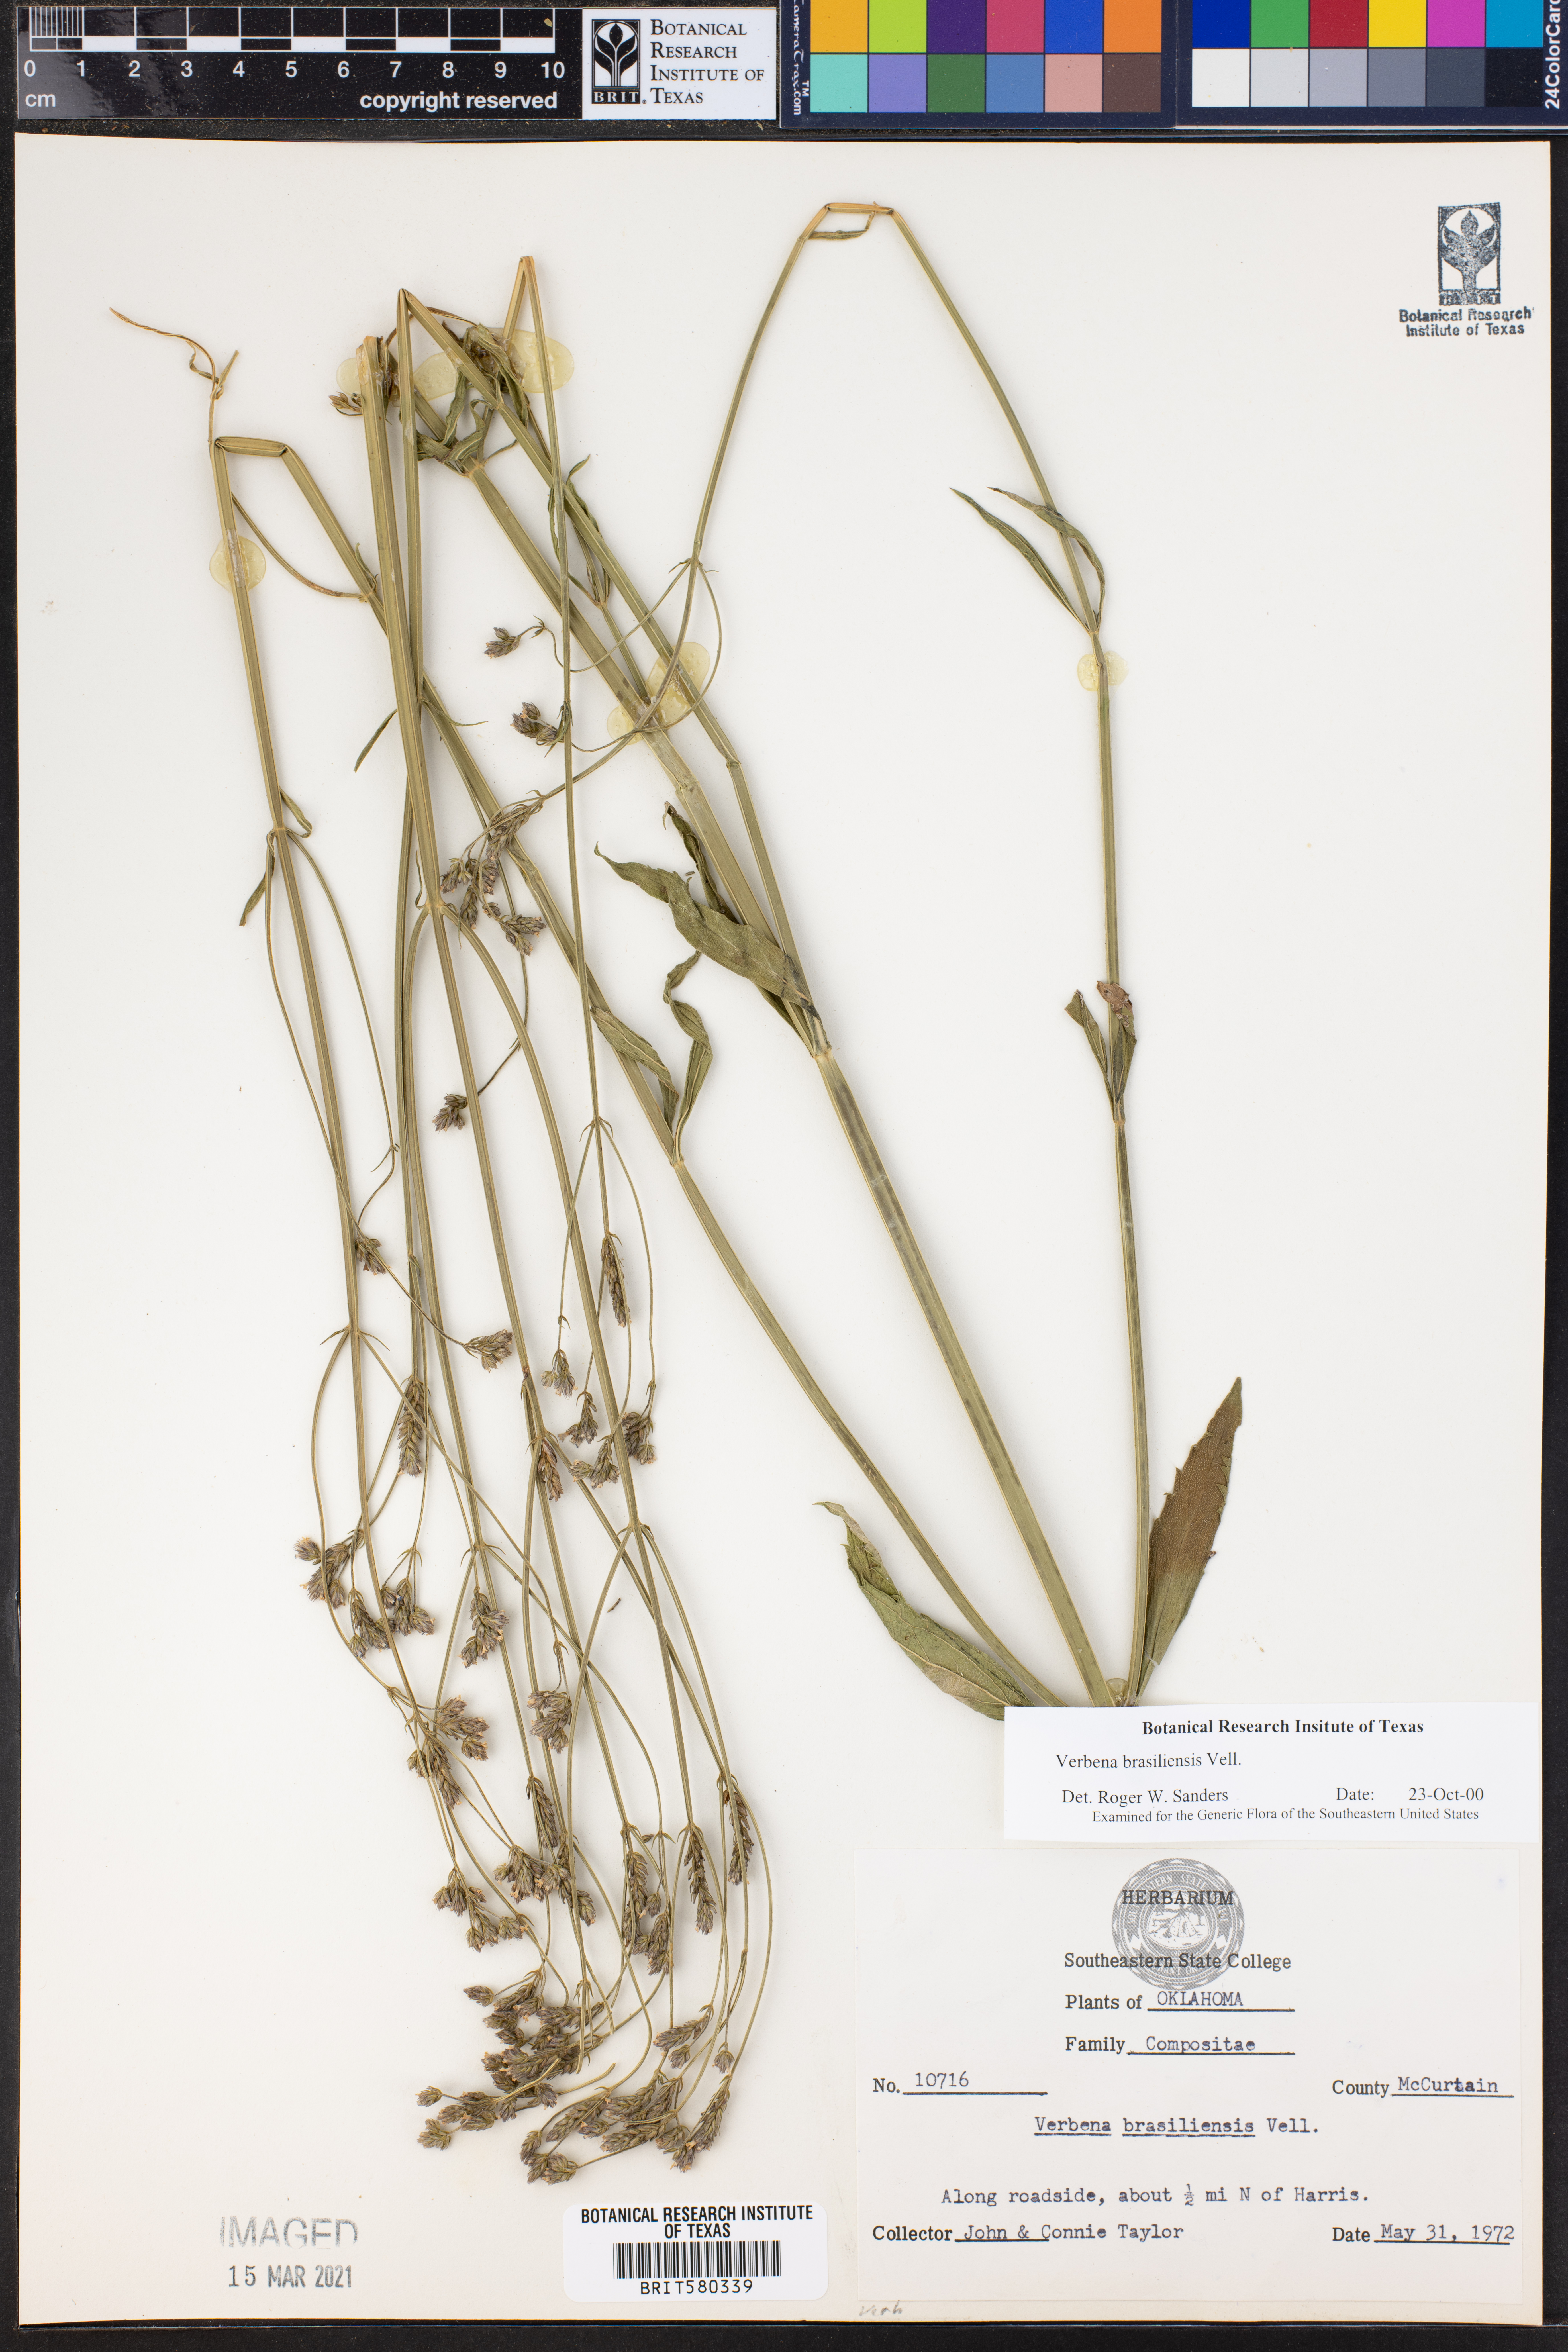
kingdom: Plantae
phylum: Tracheophyta
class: Magnoliopsida
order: Lamiales
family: Verbenaceae
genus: Verbena
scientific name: Verbena brasiliensis
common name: Brazilian vervain
